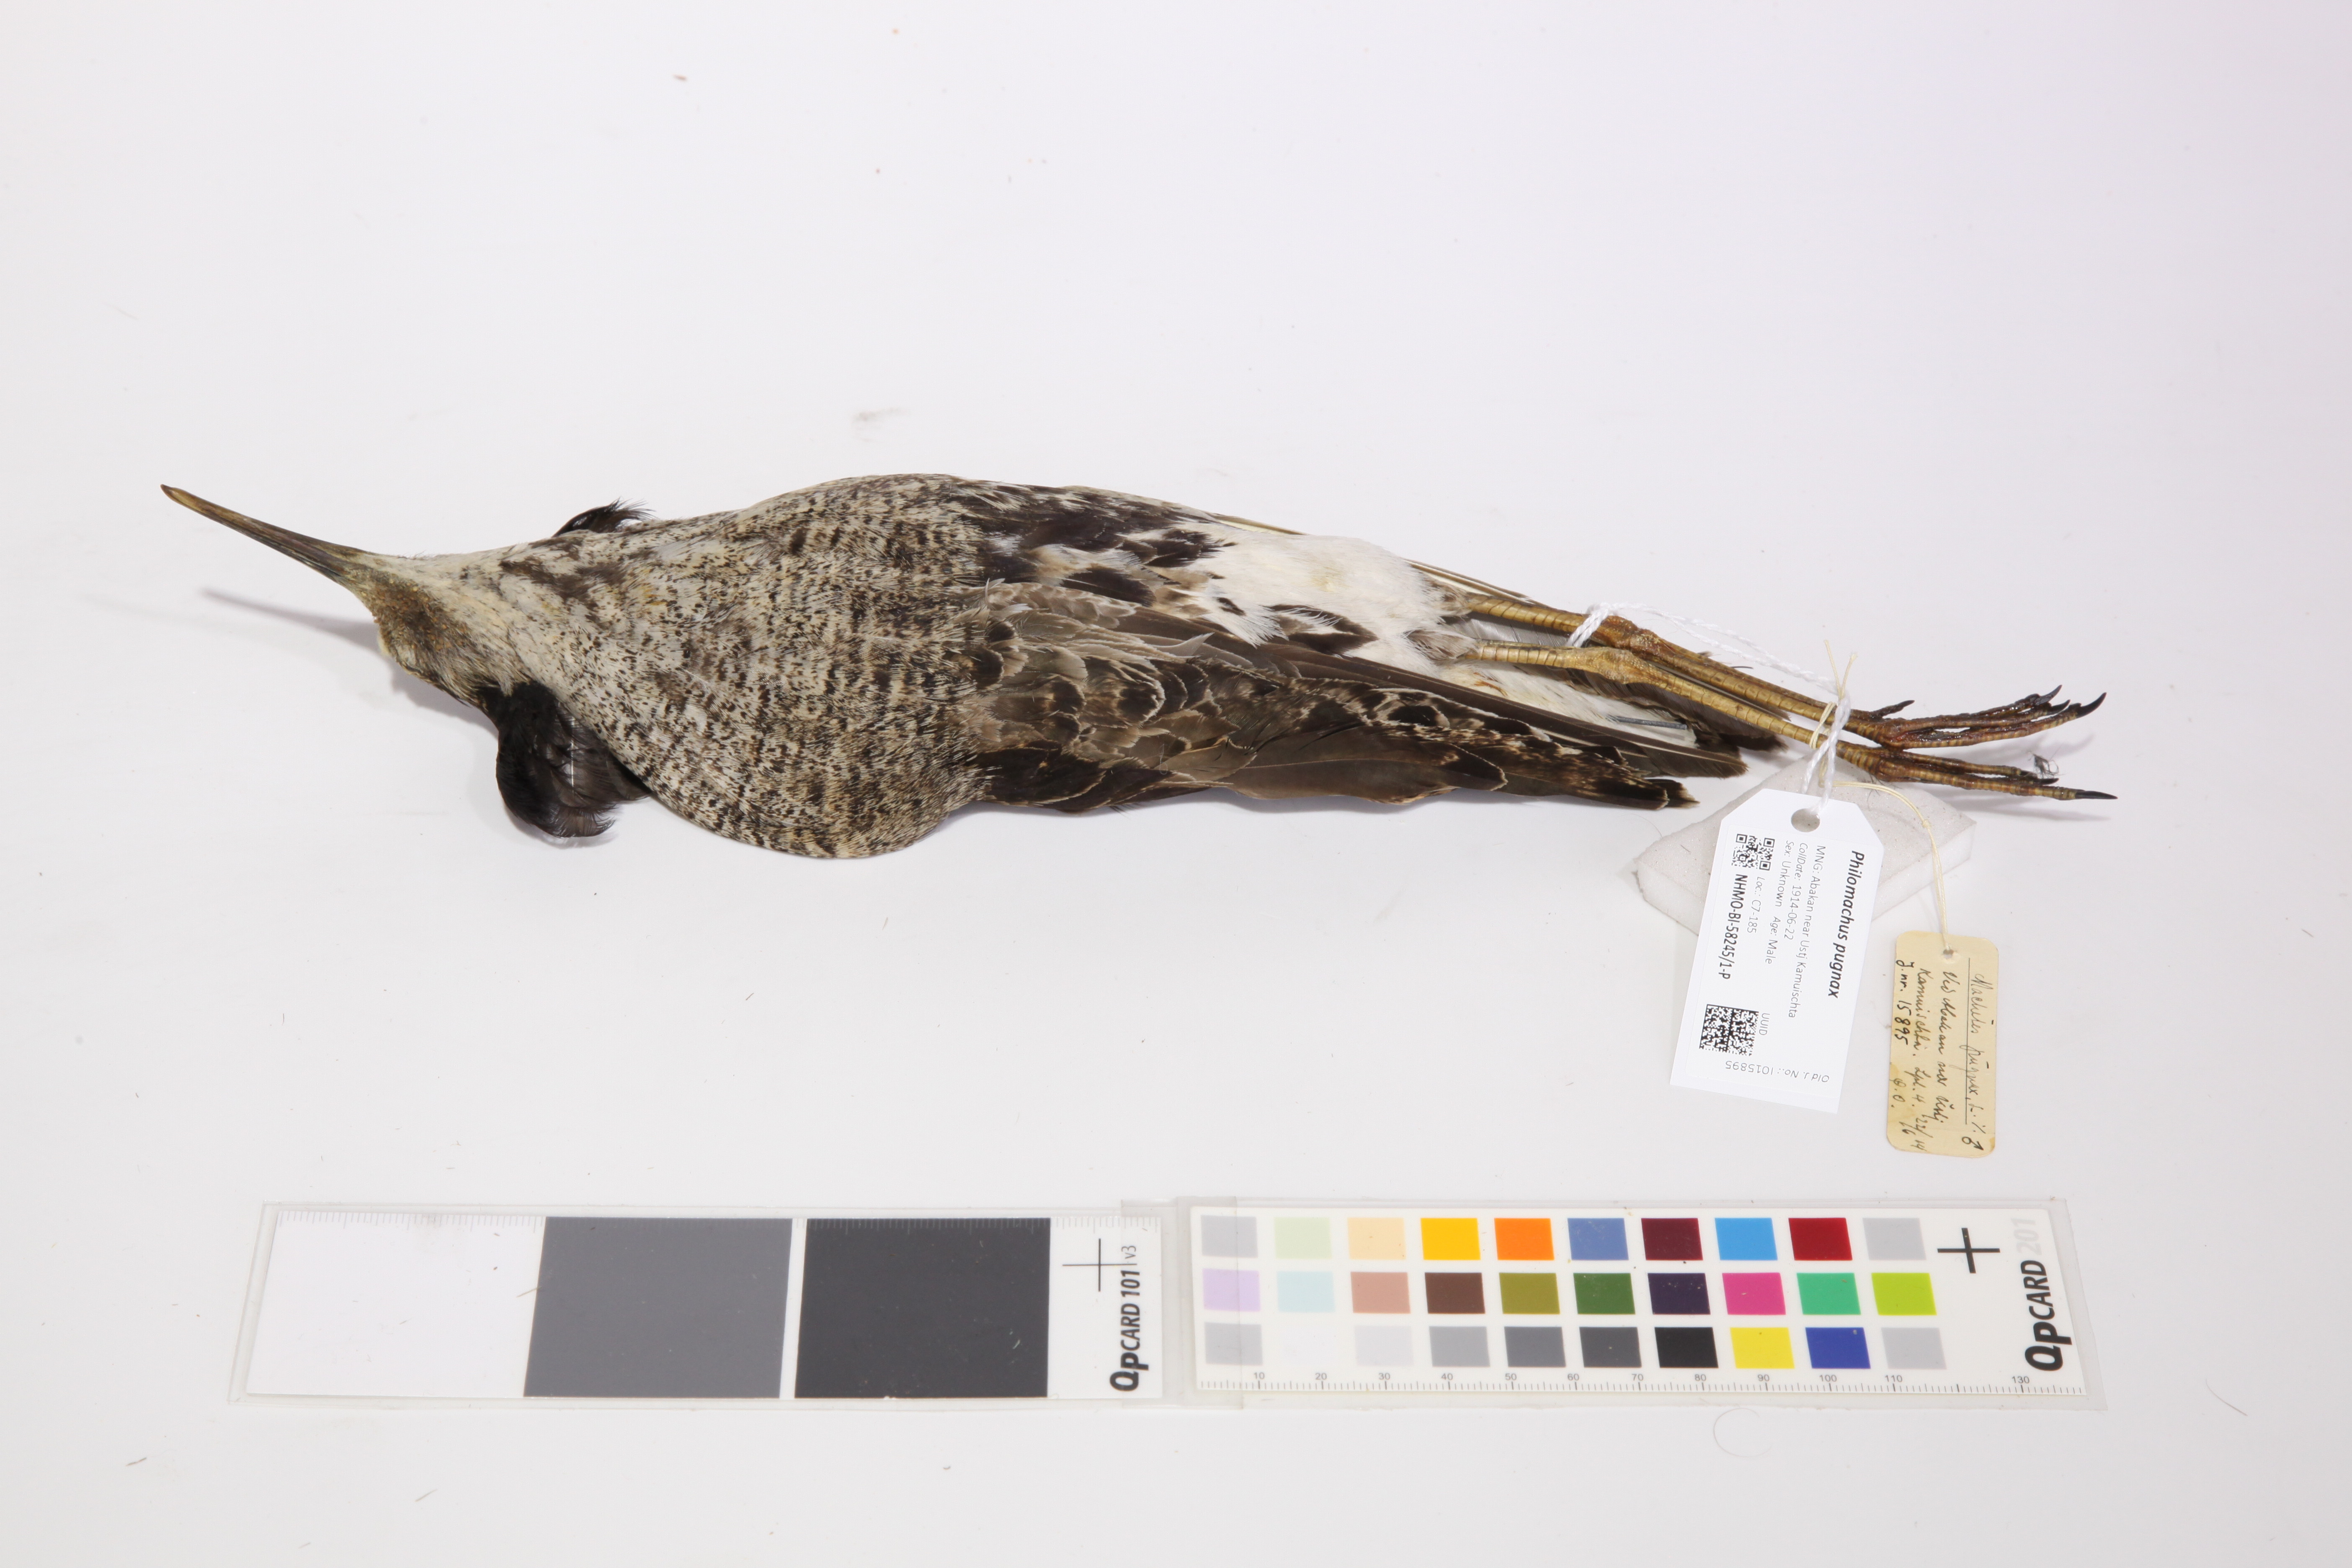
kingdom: Animalia
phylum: Chordata
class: Aves
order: Charadriiformes
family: Scolopacidae
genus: Calidris
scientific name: Calidris pugnax
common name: Ruff
